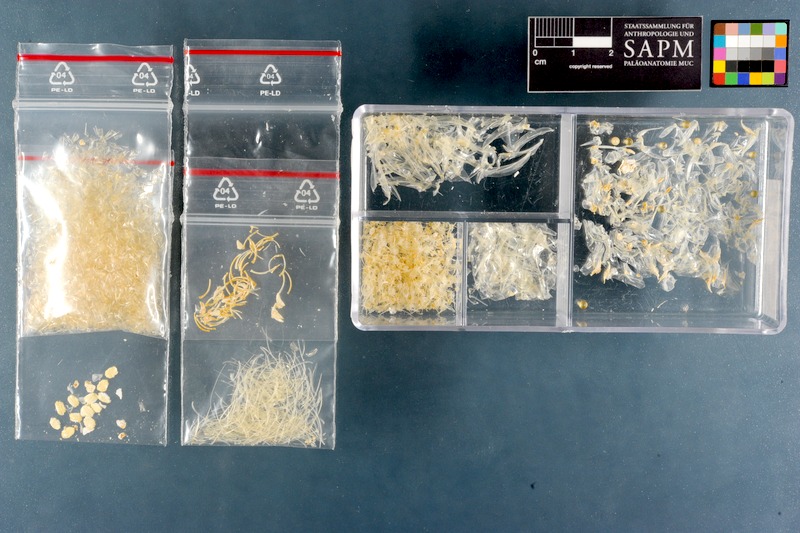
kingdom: Animalia
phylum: Chordata
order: Atheriniformes
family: Atherinidae
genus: Atherina
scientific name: Atherina presbyter
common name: Sand smelt
